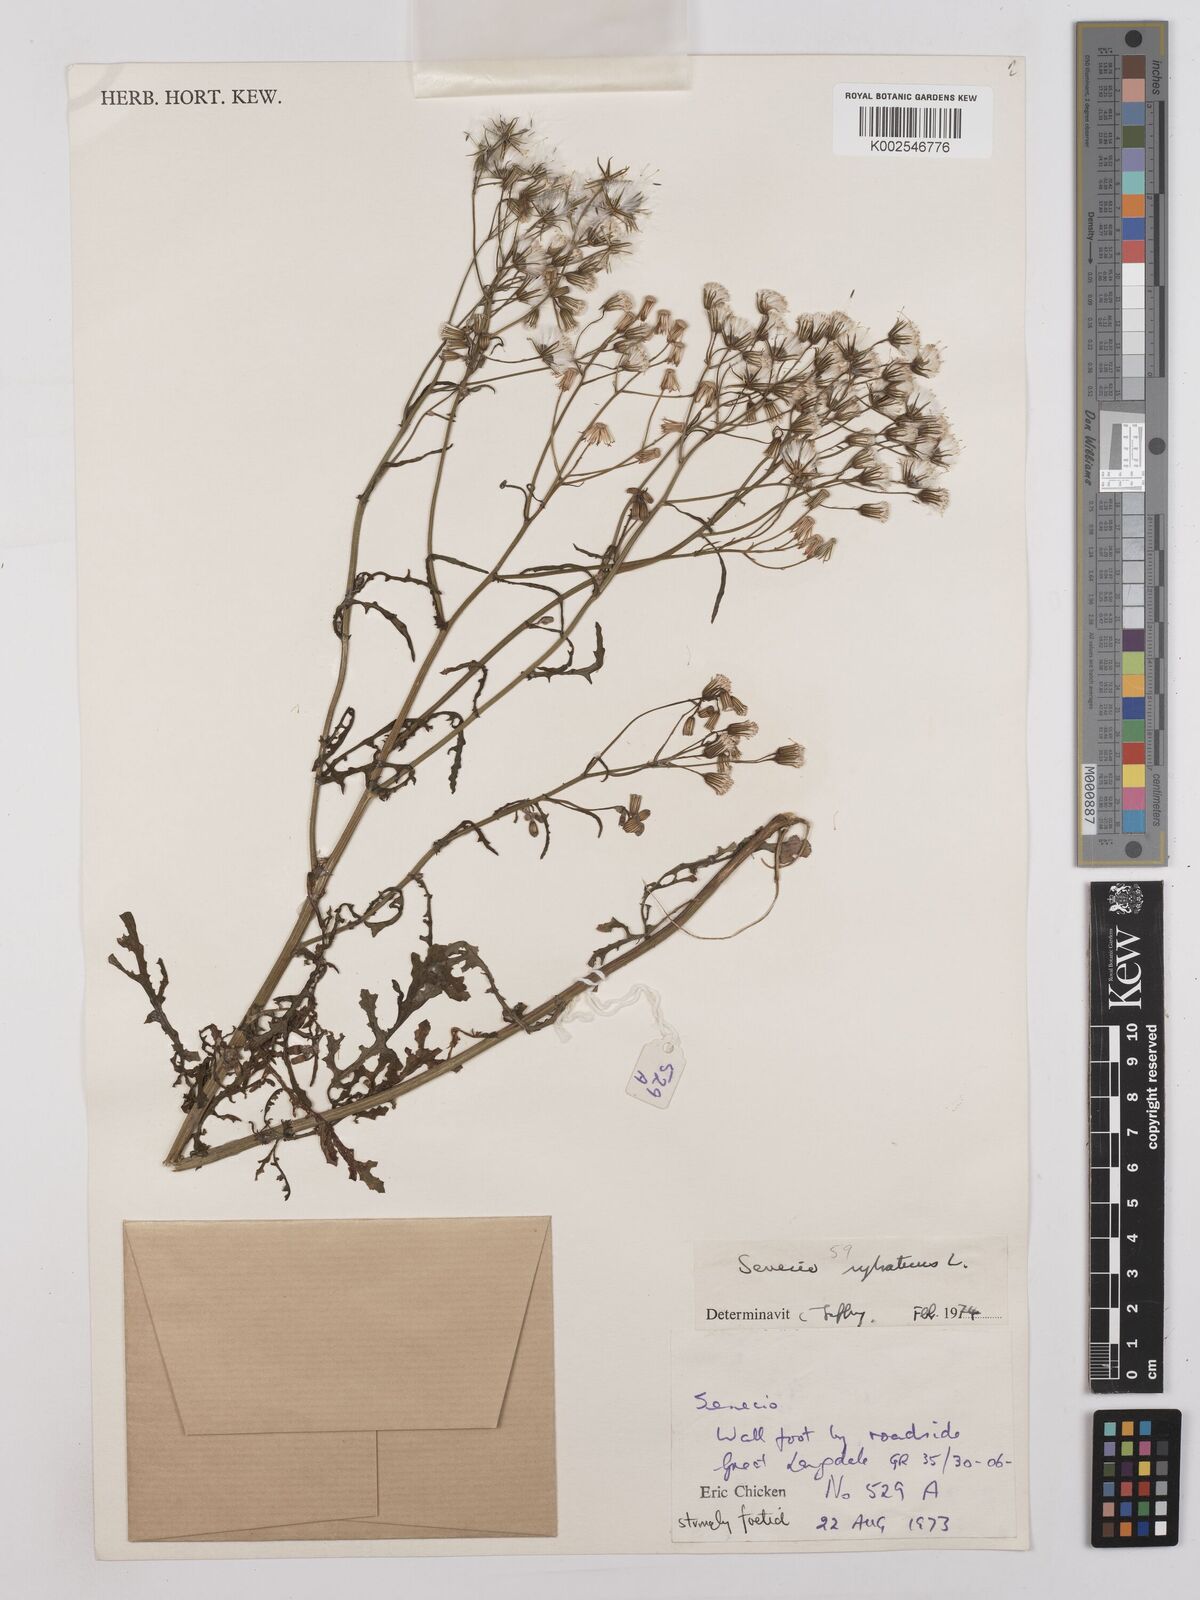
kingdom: Plantae
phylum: Tracheophyta
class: Magnoliopsida
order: Asterales
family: Asteraceae
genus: Senecio
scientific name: Senecio sylvaticus
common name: Woodland ragwort
